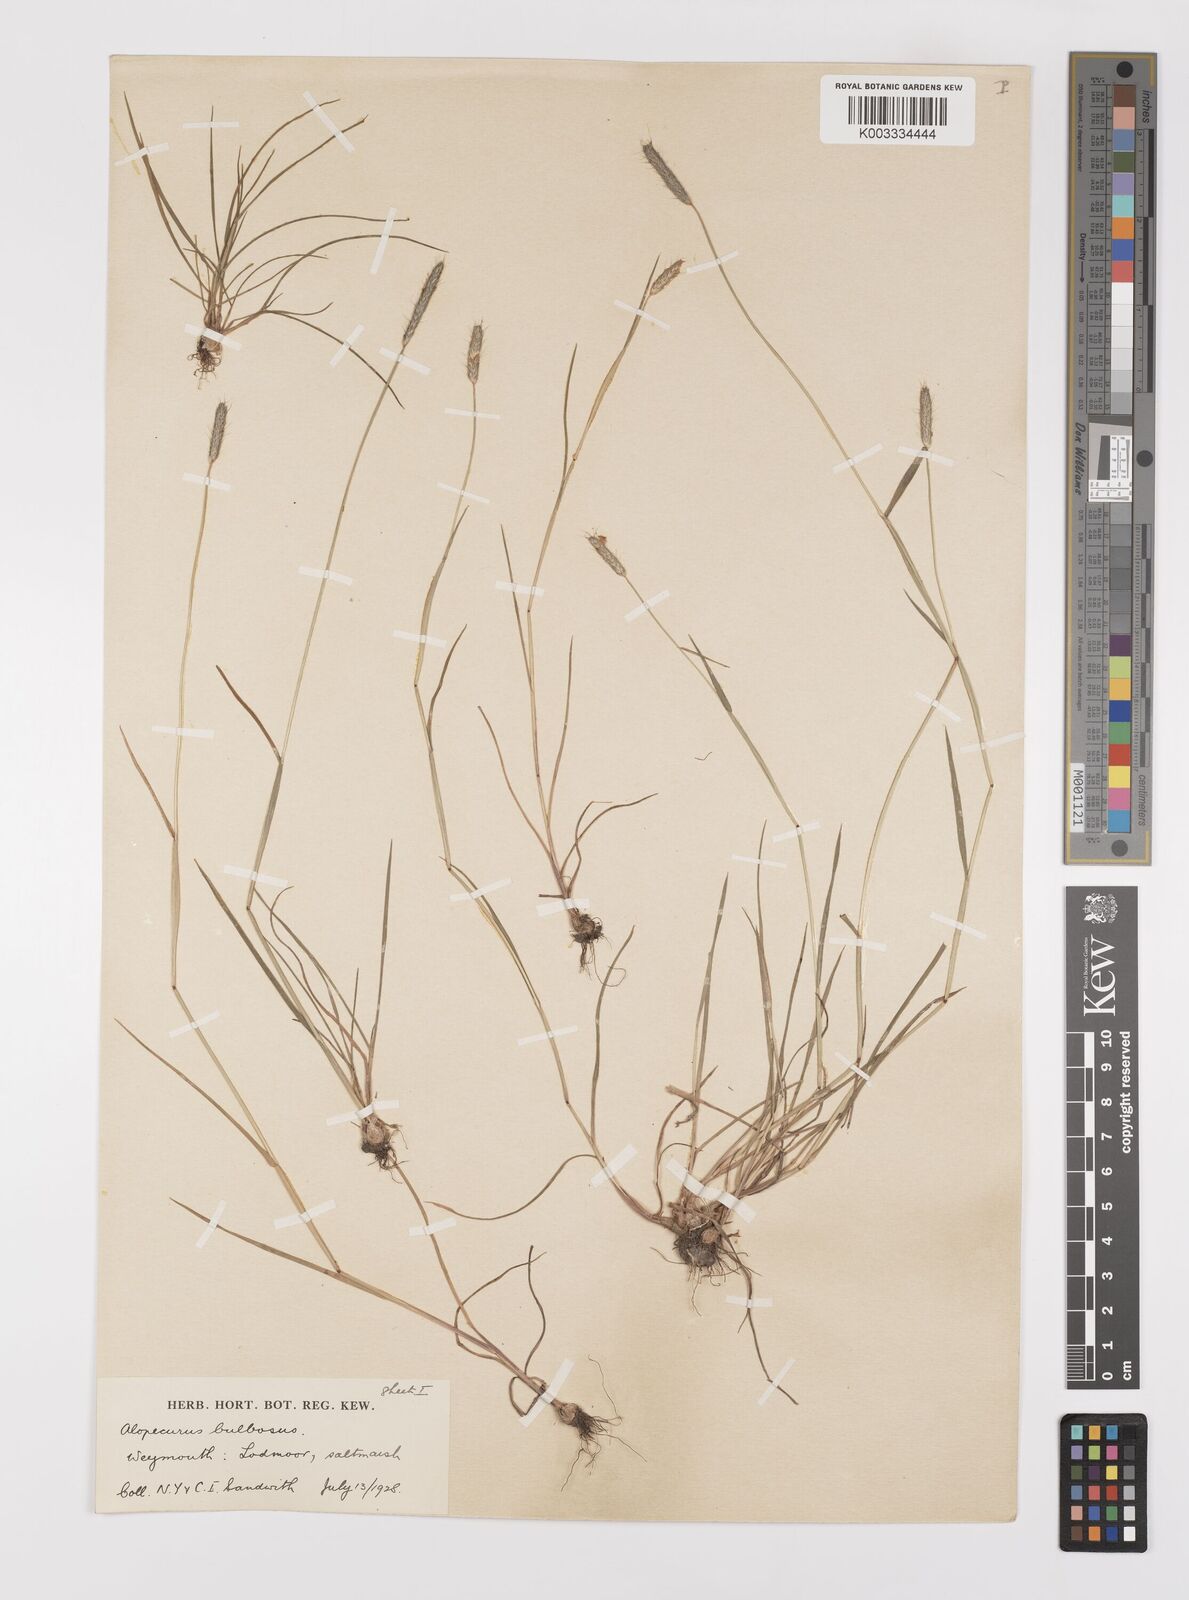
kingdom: Plantae
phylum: Tracheophyta
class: Liliopsida
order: Poales
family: Poaceae
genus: Alopecurus
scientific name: Alopecurus bulbosus
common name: Bulbous foxtail
